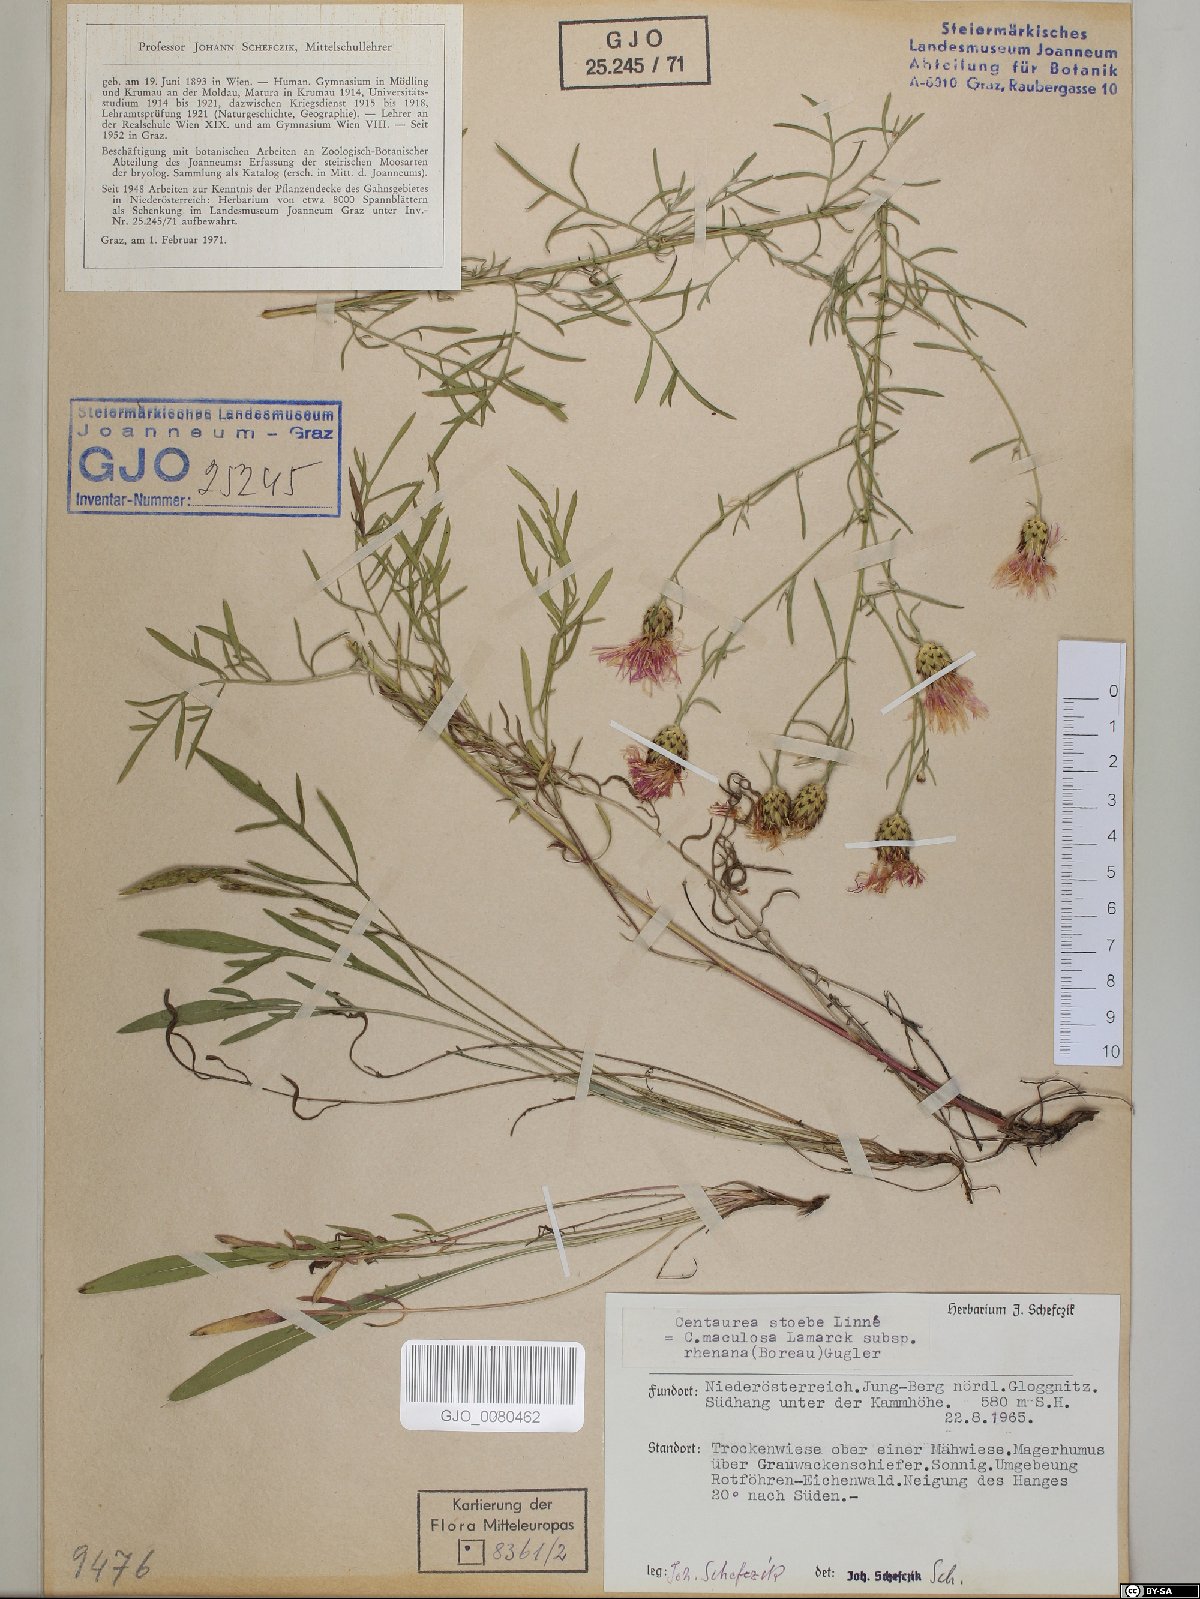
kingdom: Plantae
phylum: Tracheophyta
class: Magnoliopsida
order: Asterales
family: Asteraceae
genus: Centaurea
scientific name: Centaurea stoebe
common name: Spotted knapweed
